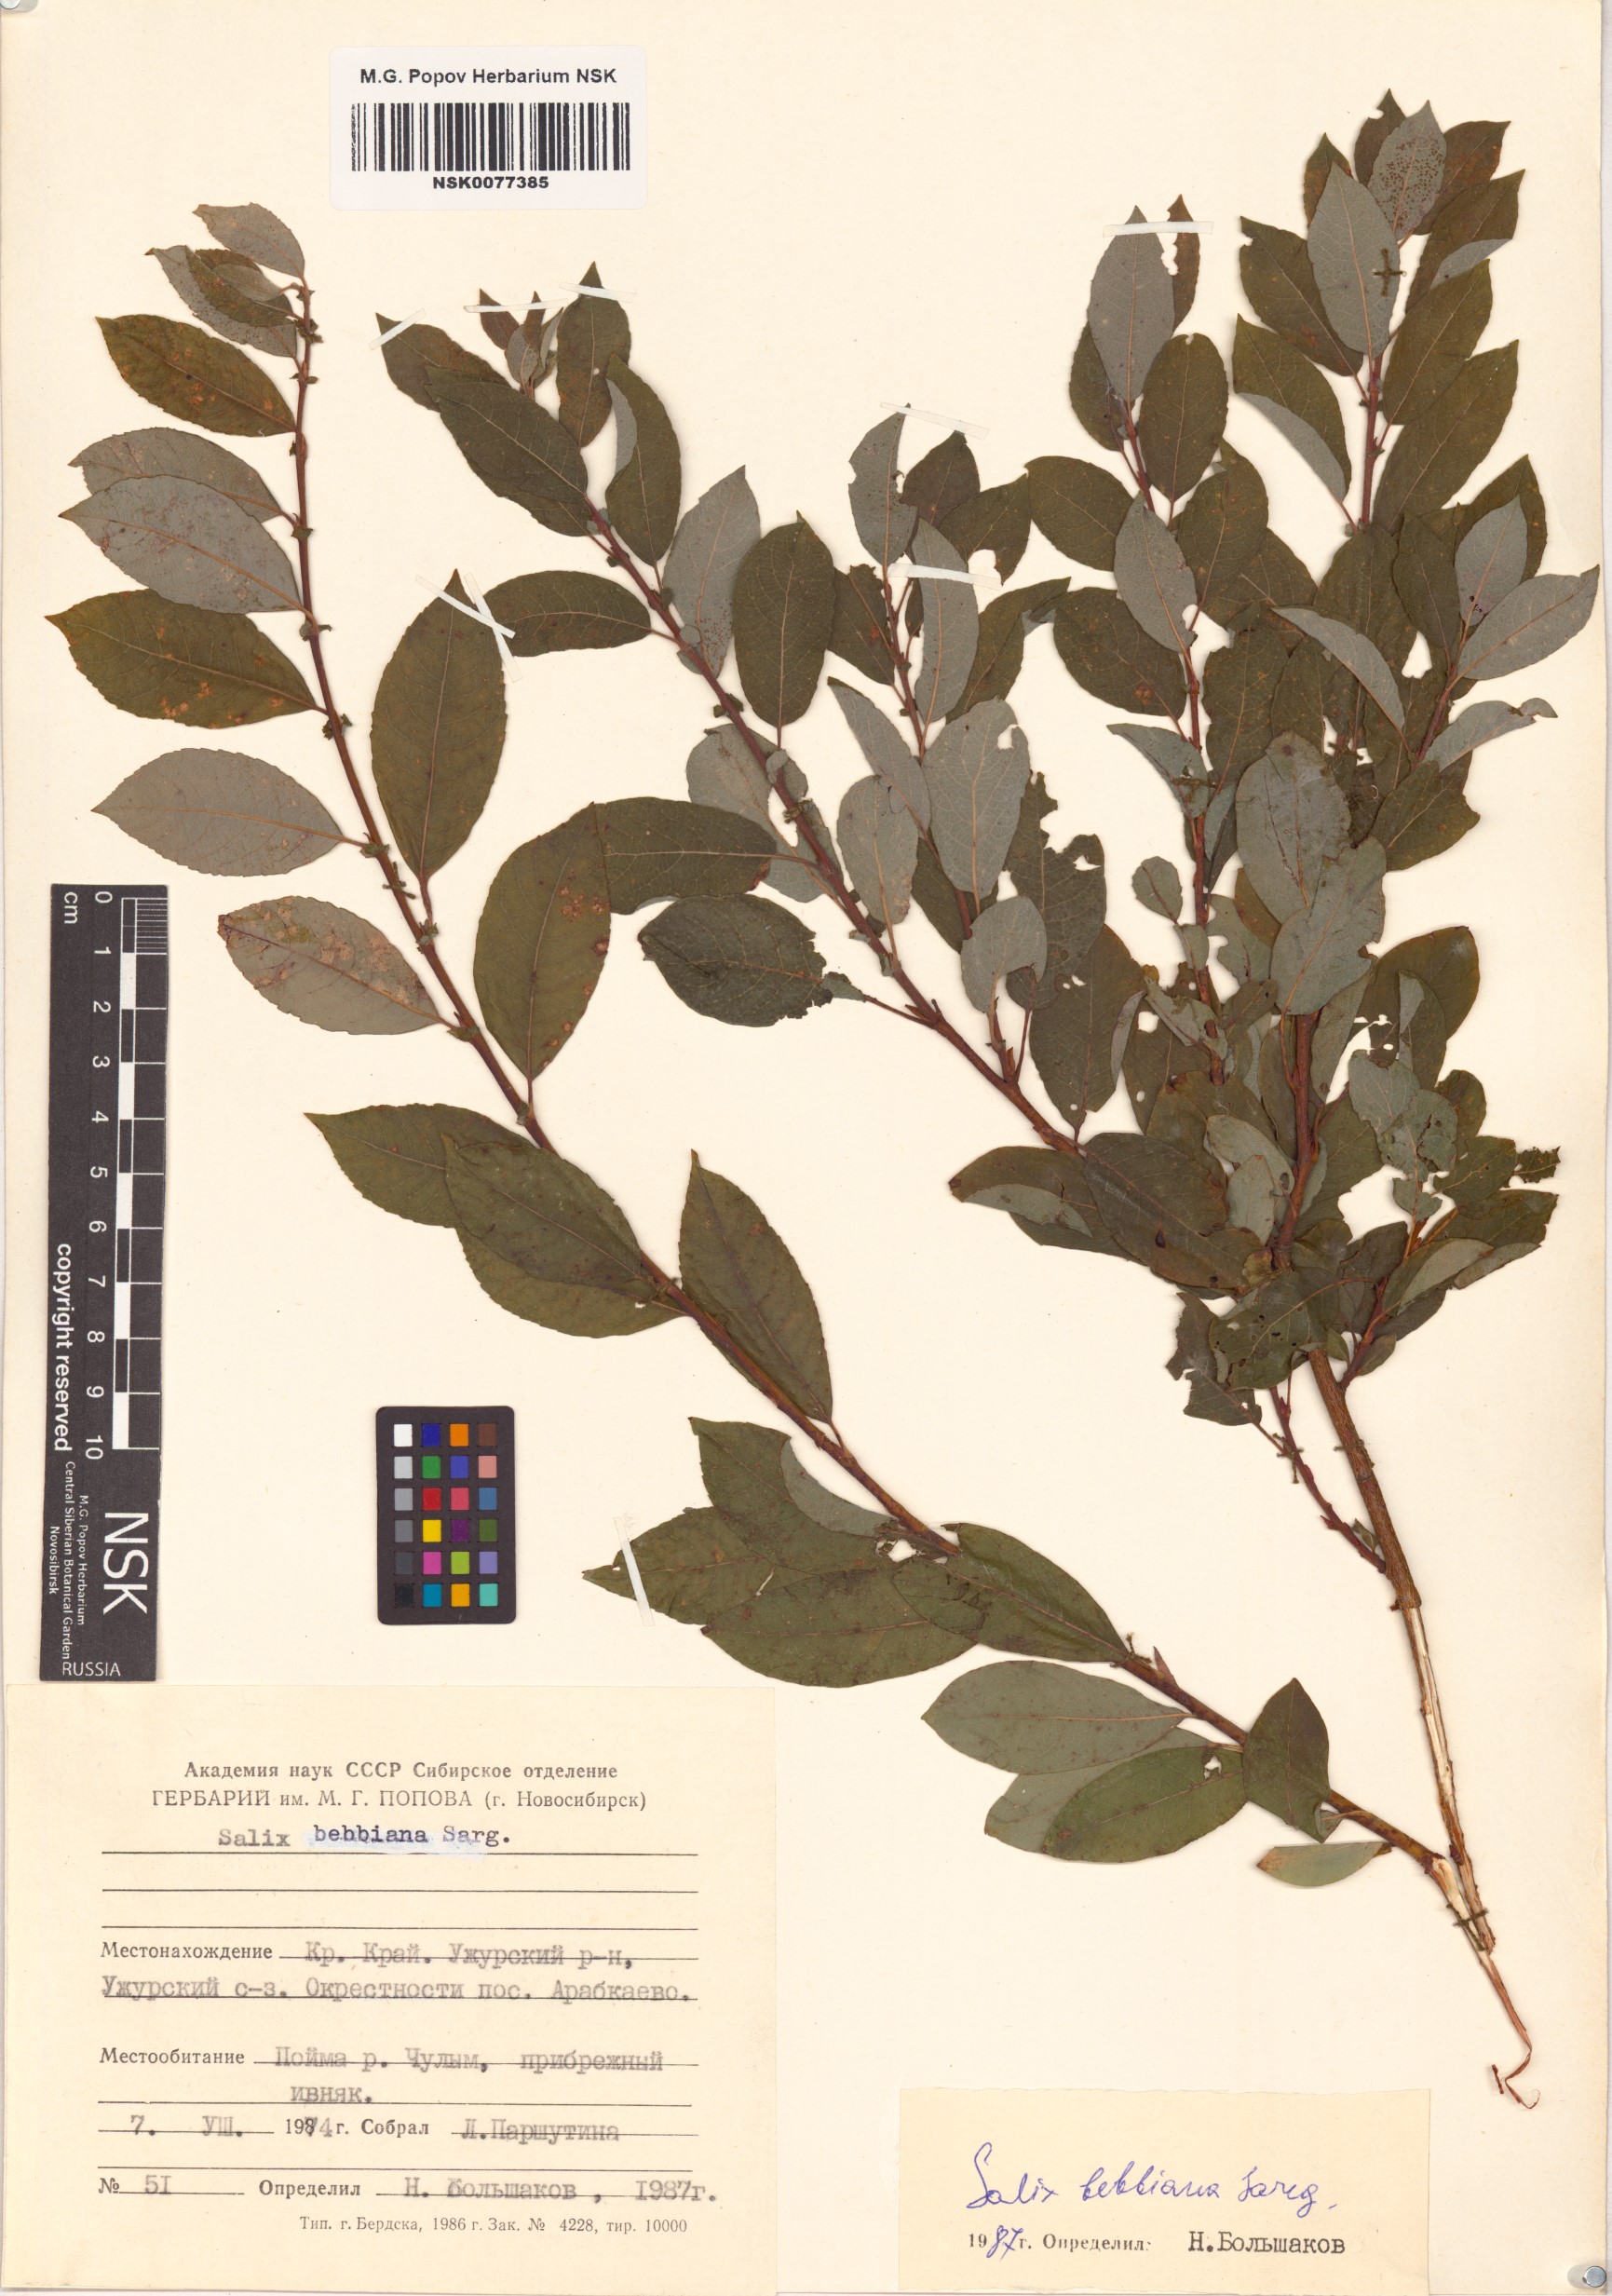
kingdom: Plantae
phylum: Tracheophyta
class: Magnoliopsida
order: Malpighiales
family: Salicaceae
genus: Salix
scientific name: Salix bebbiana
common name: Bebb's willow
